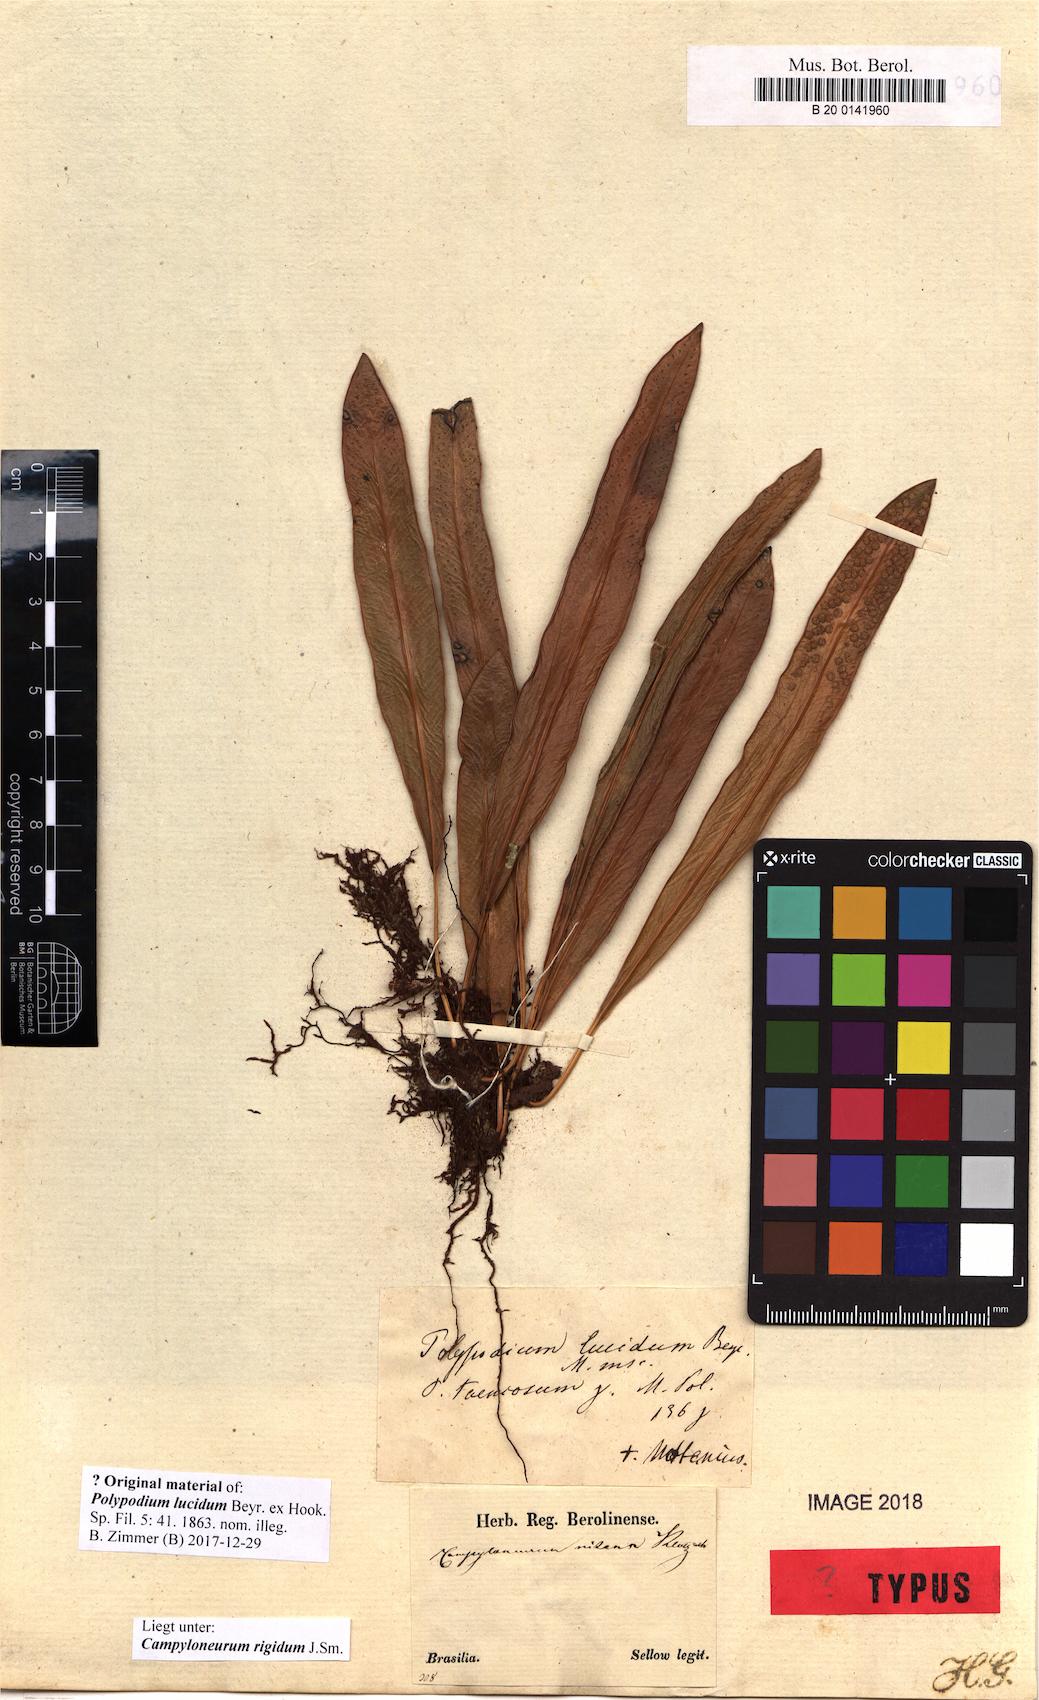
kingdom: Plantae
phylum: Tracheophyta
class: Polypodiopsida
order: Polypodiales
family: Polypodiaceae
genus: Campyloneurum
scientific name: Campyloneurum rigidum
